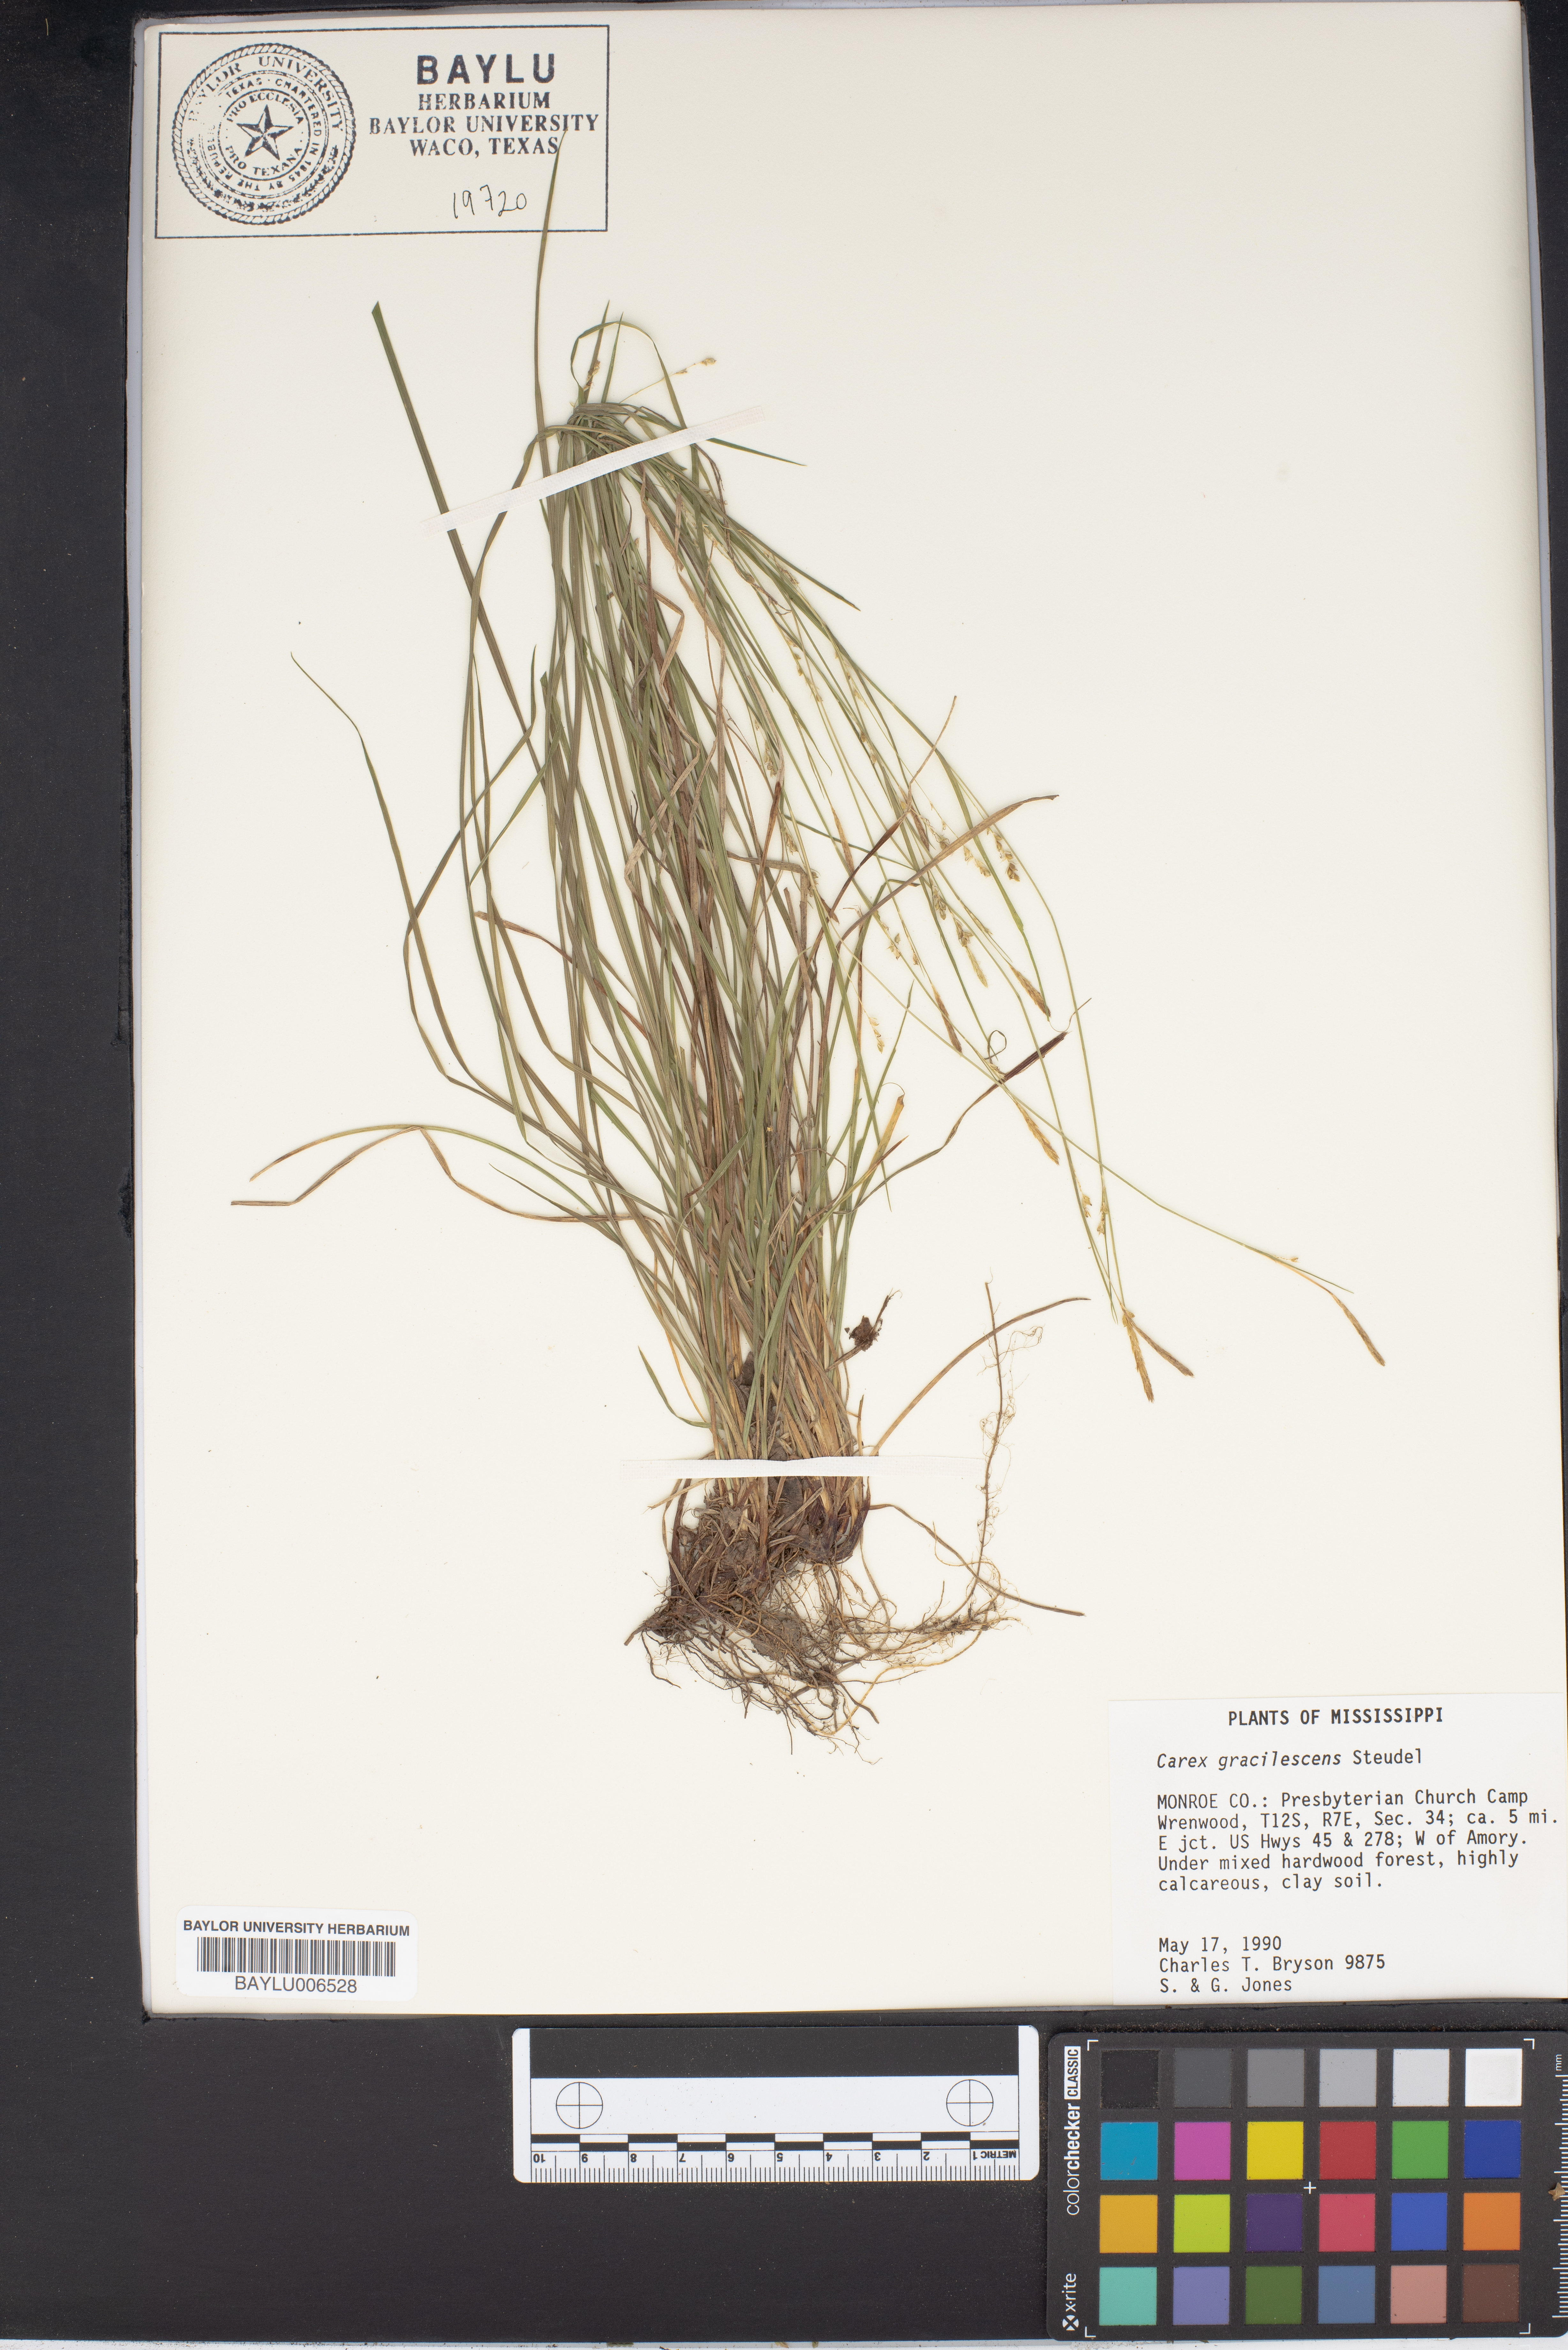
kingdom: Plantae
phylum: Tracheophyta
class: Liliopsida
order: Poales
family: Cyperaceae
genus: Carex
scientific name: Carex laxiflora
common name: Beech wood sedge
